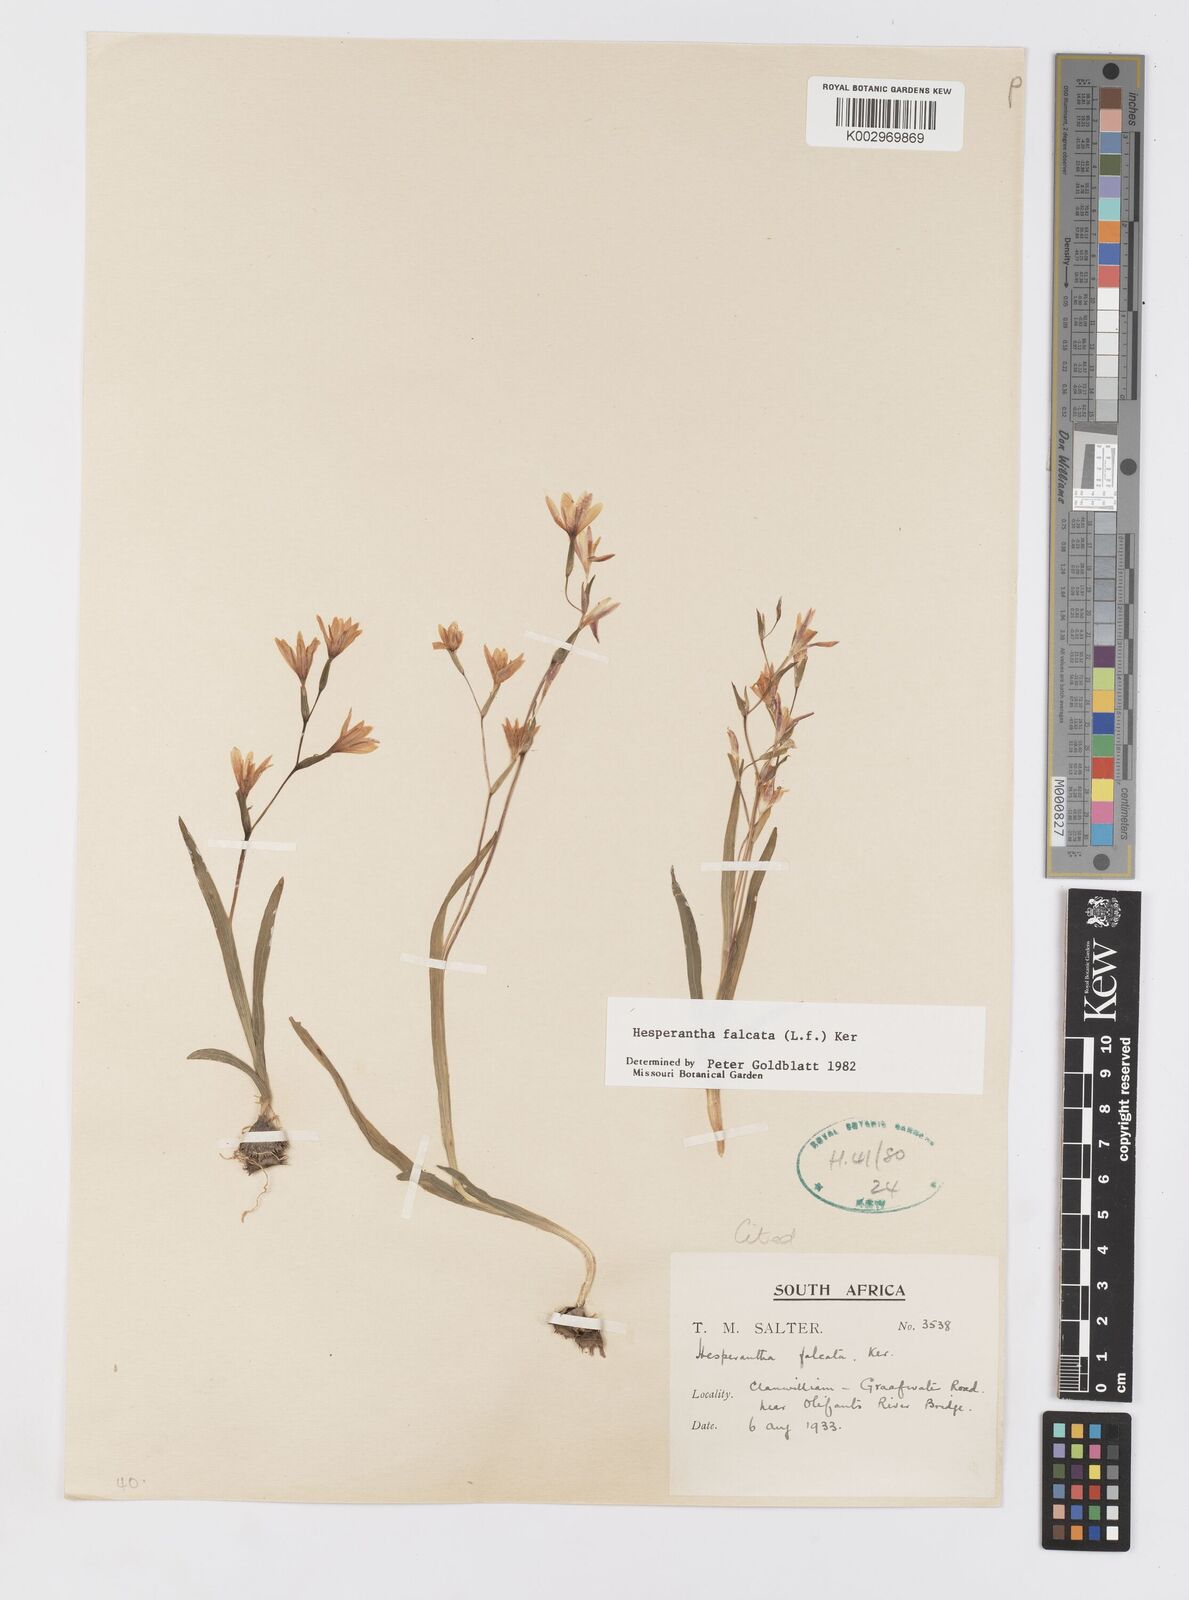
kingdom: Plantae
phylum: Tracheophyta
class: Liliopsida
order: Asparagales
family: Iridaceae
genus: Hesperantha
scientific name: Hesperantha falcata
